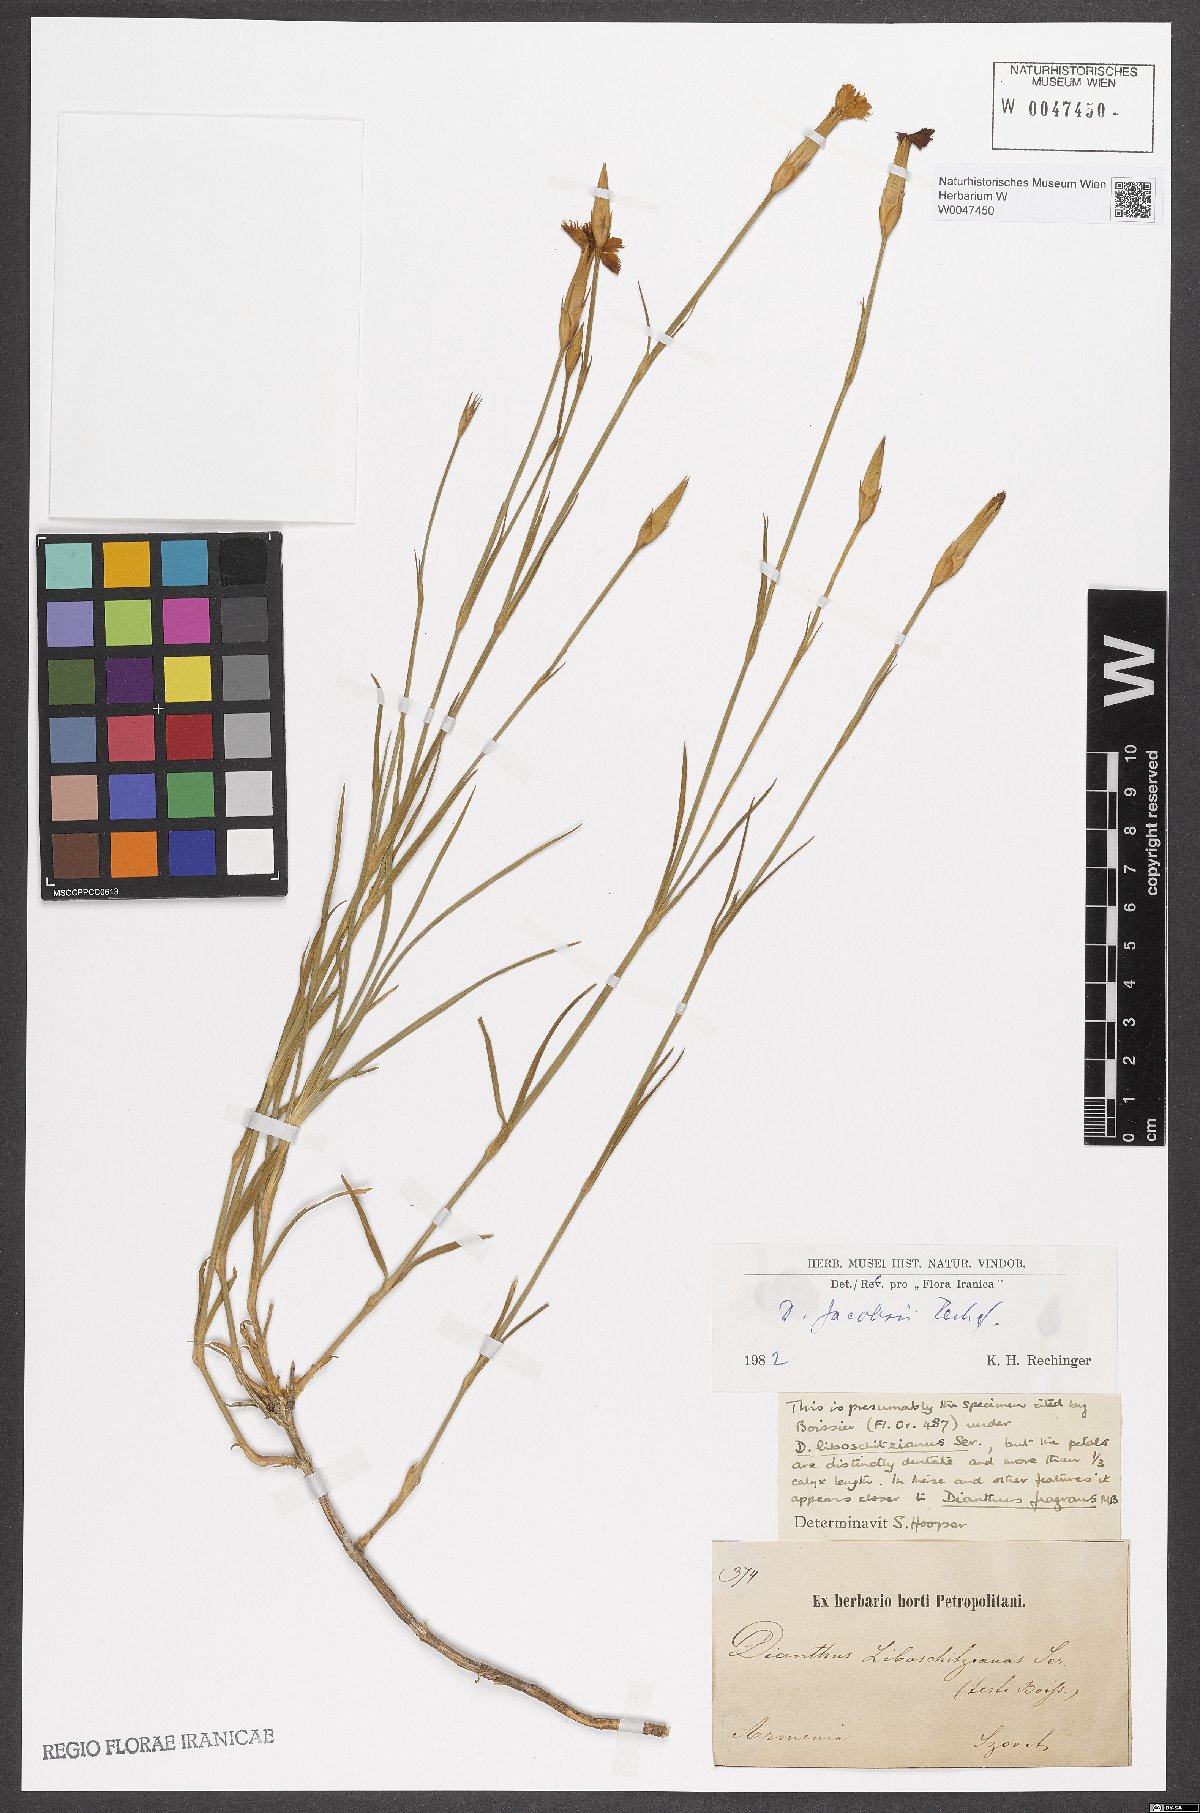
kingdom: Plantae
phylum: Tracheophyta
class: Magnoliopsida
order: Caryophyllales
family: Caryophyllaceae
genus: Dianthus
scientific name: Dianthus jacobsii
